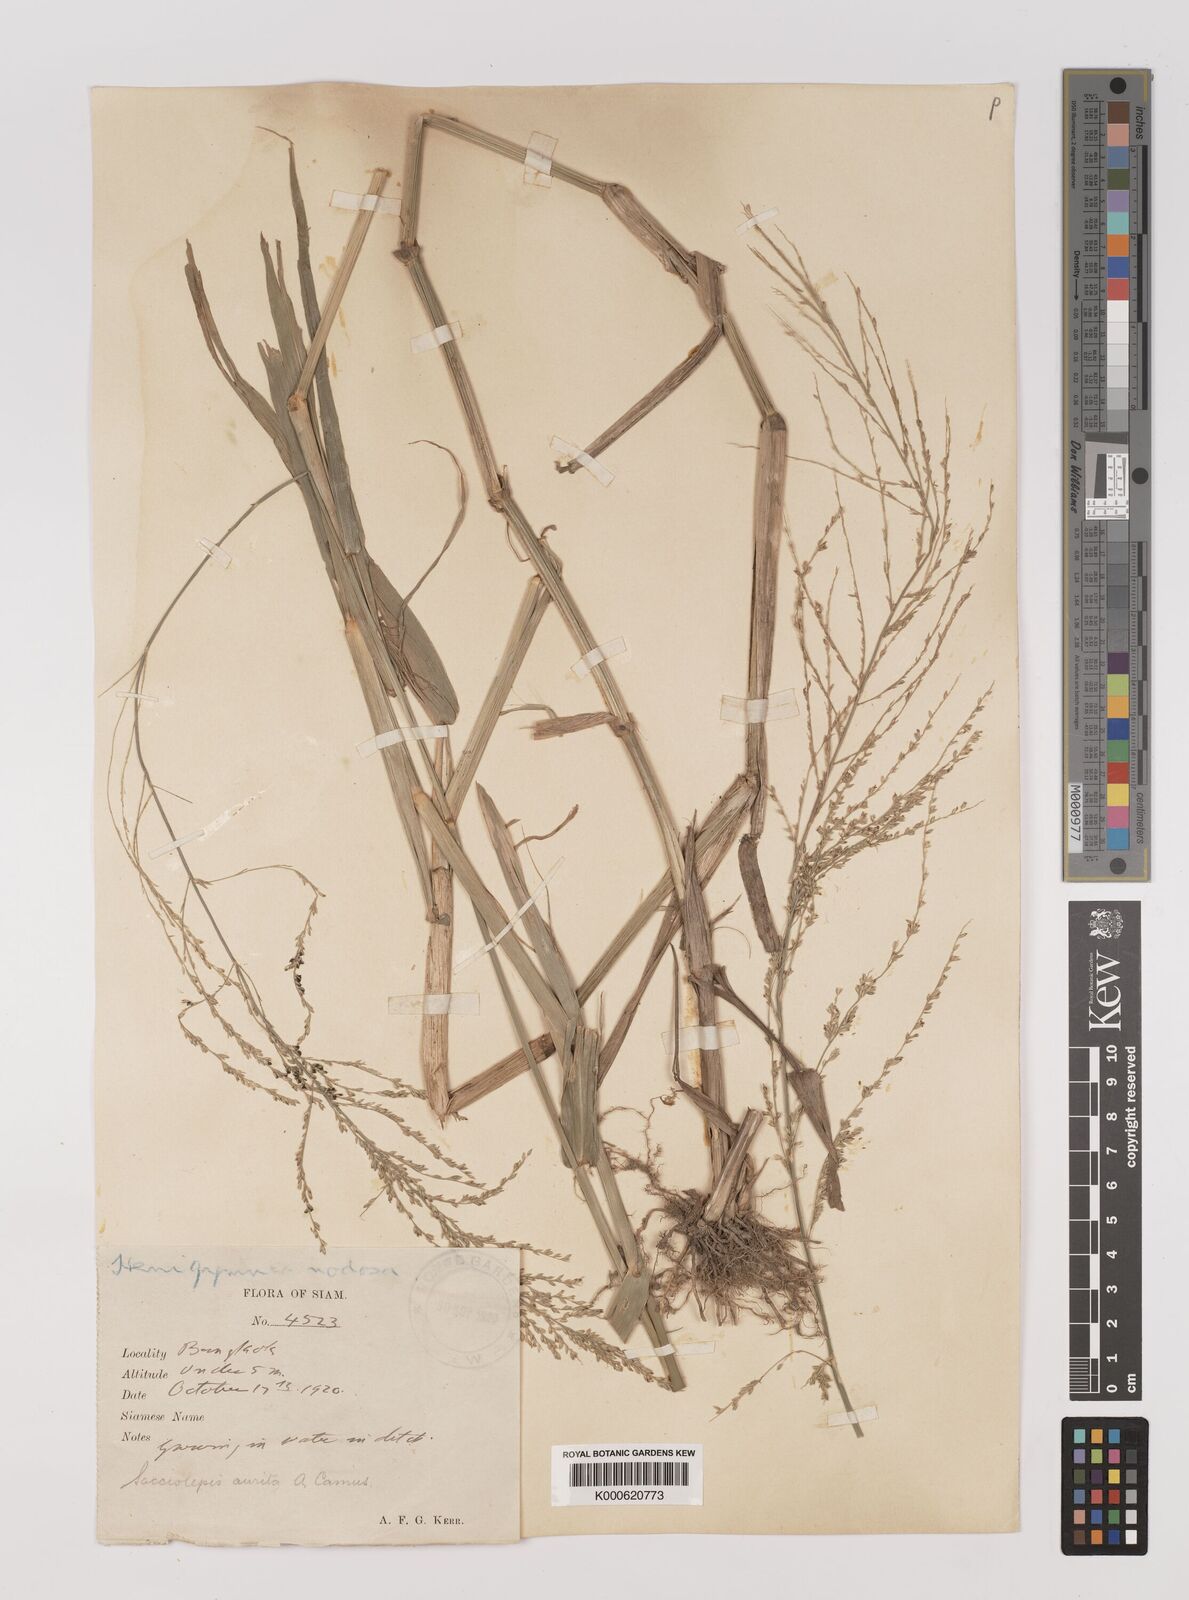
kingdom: Plantae
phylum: Tracheophyta
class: Liliopsida
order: Poales
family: Poaceae
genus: Hymenachne
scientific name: Hymenachne aurita
